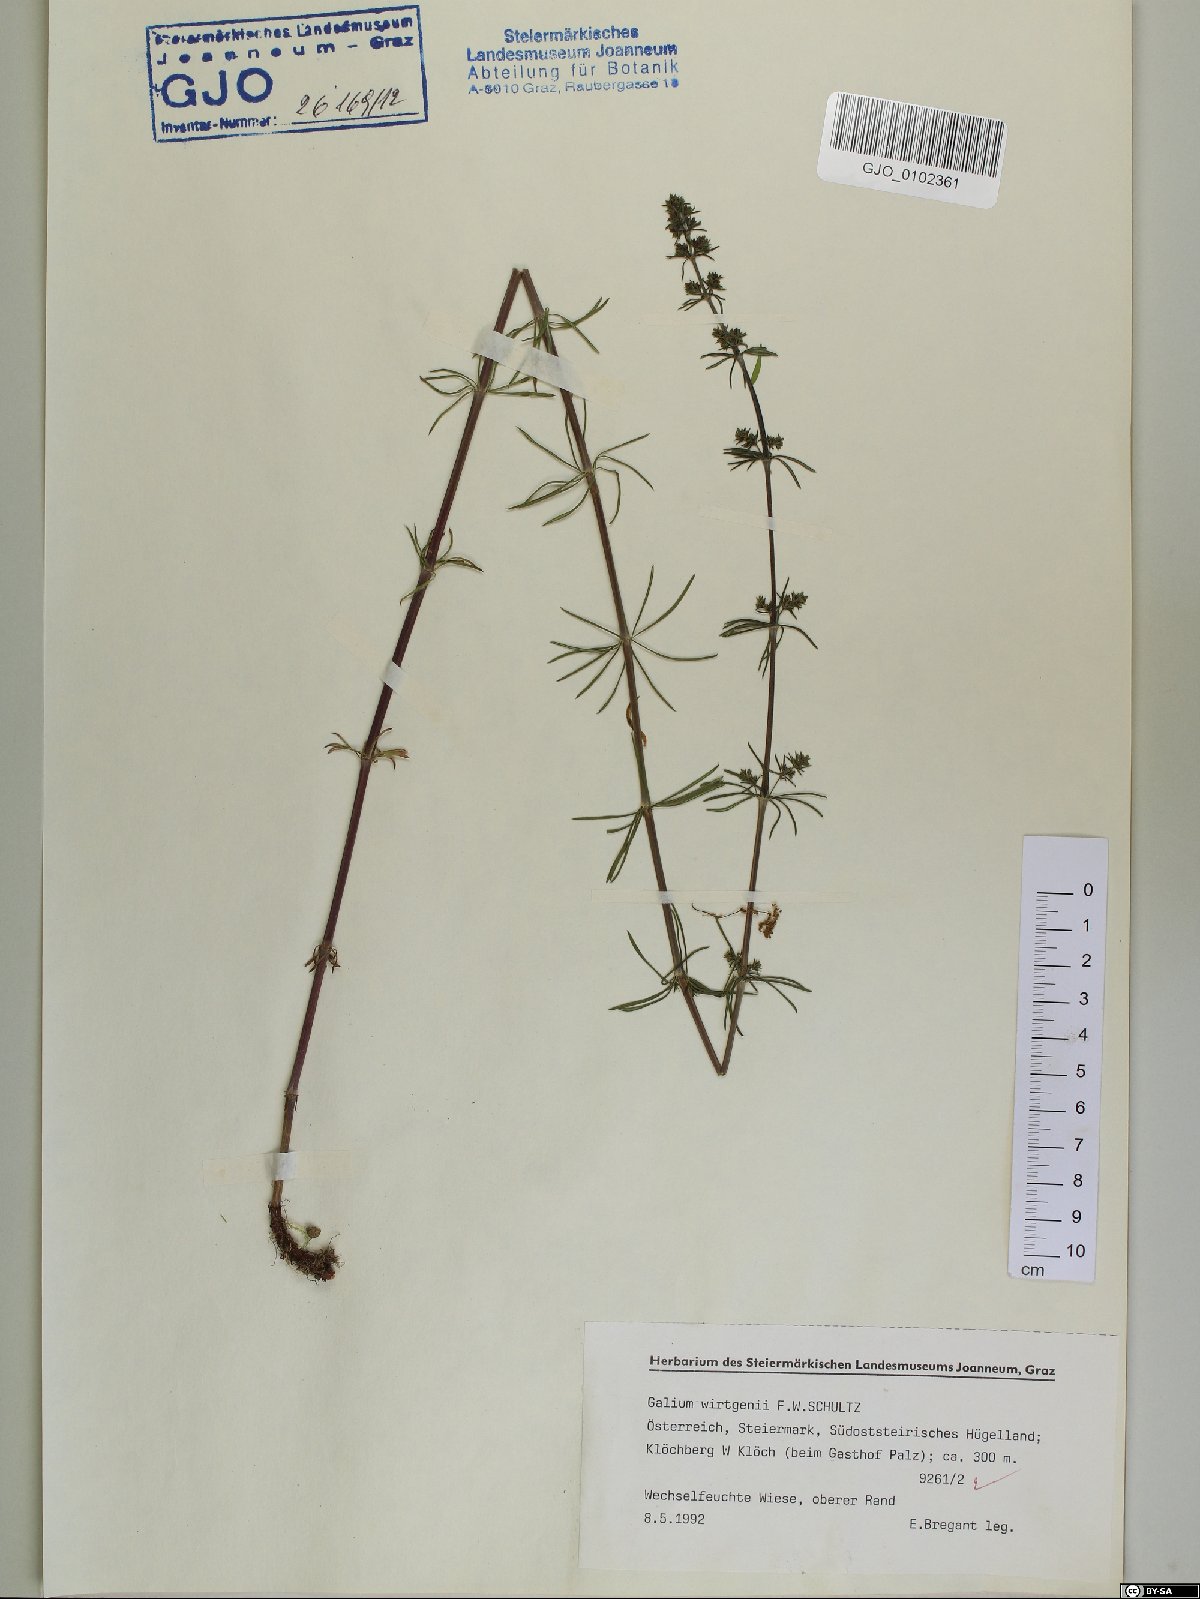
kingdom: Plantae
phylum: Tracheophyta
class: Magnoliopsida
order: Gentianales
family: Rubiaceae
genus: Galium
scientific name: Galium verum
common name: Lady's bedstraw
